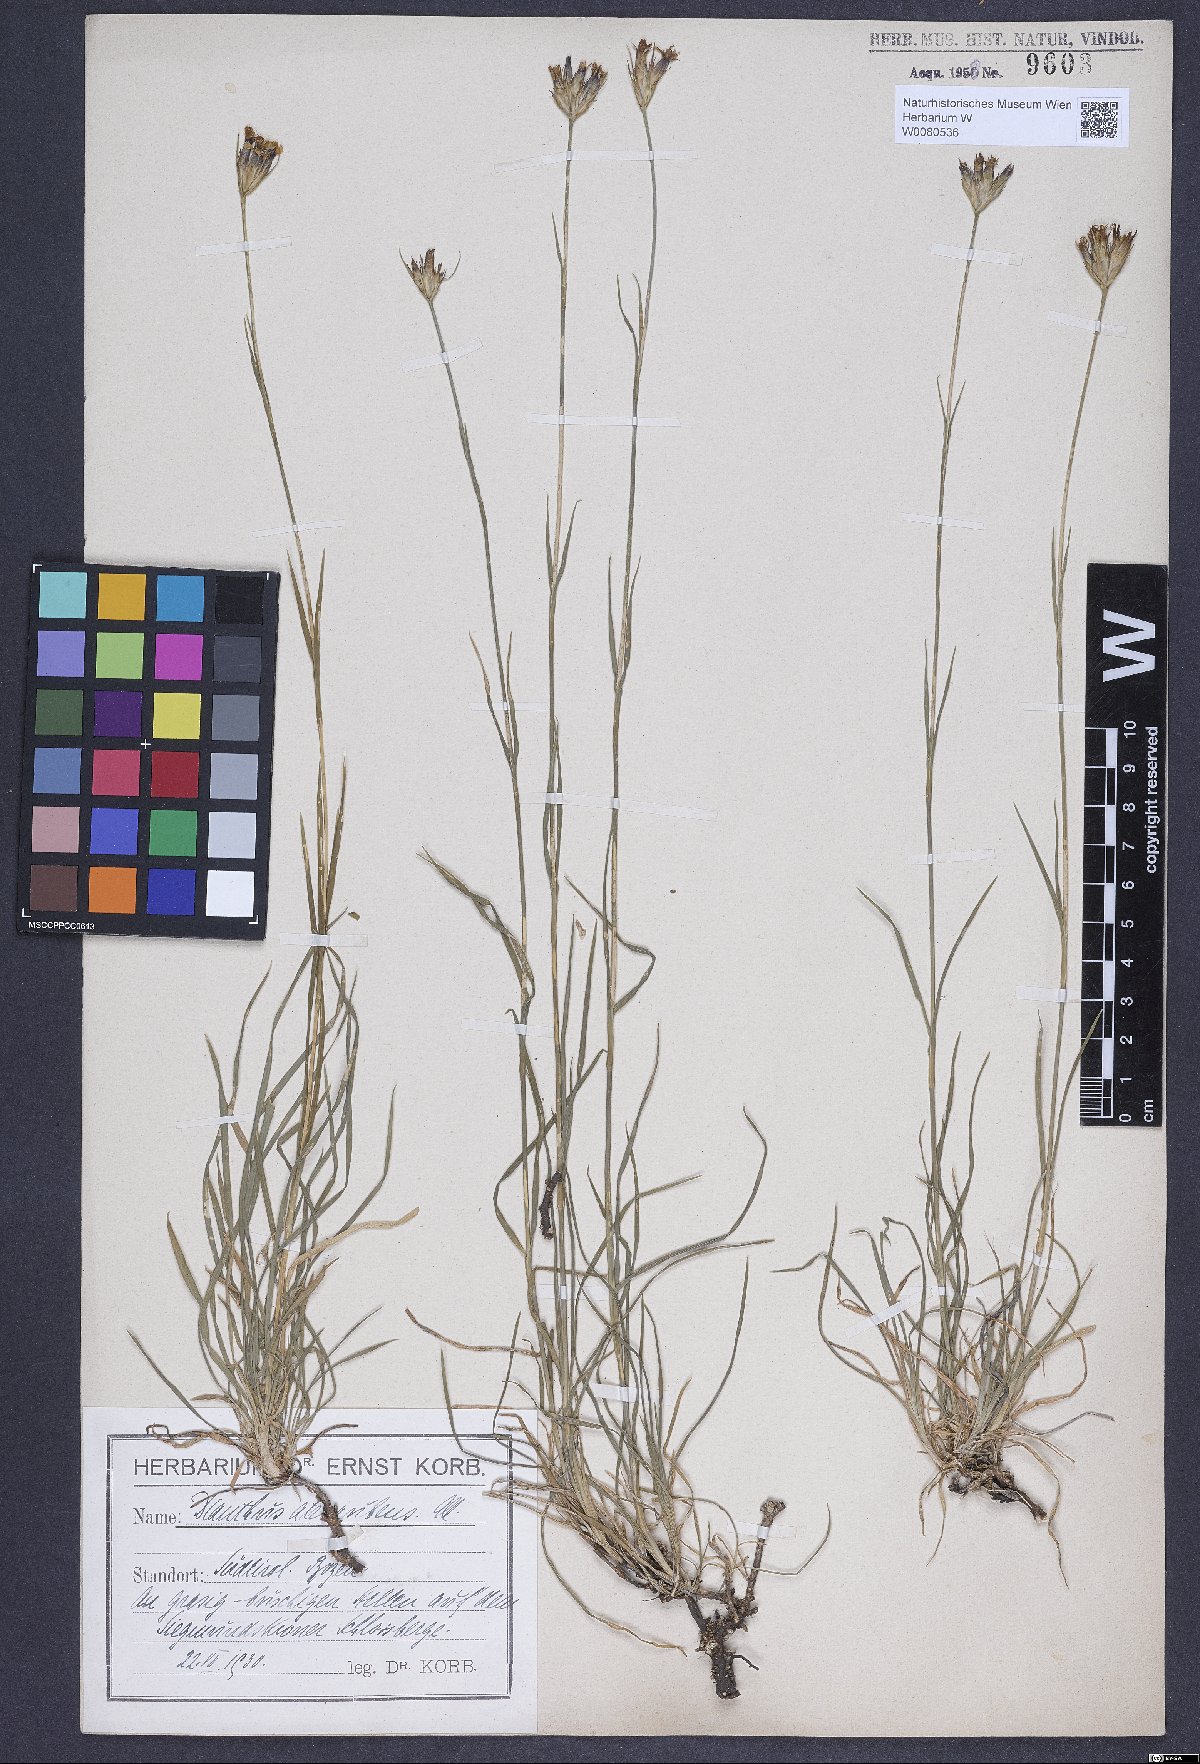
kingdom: Plantae
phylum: Tracheophyta
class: Magnoliopsida
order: Caryophyllales
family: Caryophyllaceae
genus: Dianthus
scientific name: Dianthus carthusianorum
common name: Carthusian pink
